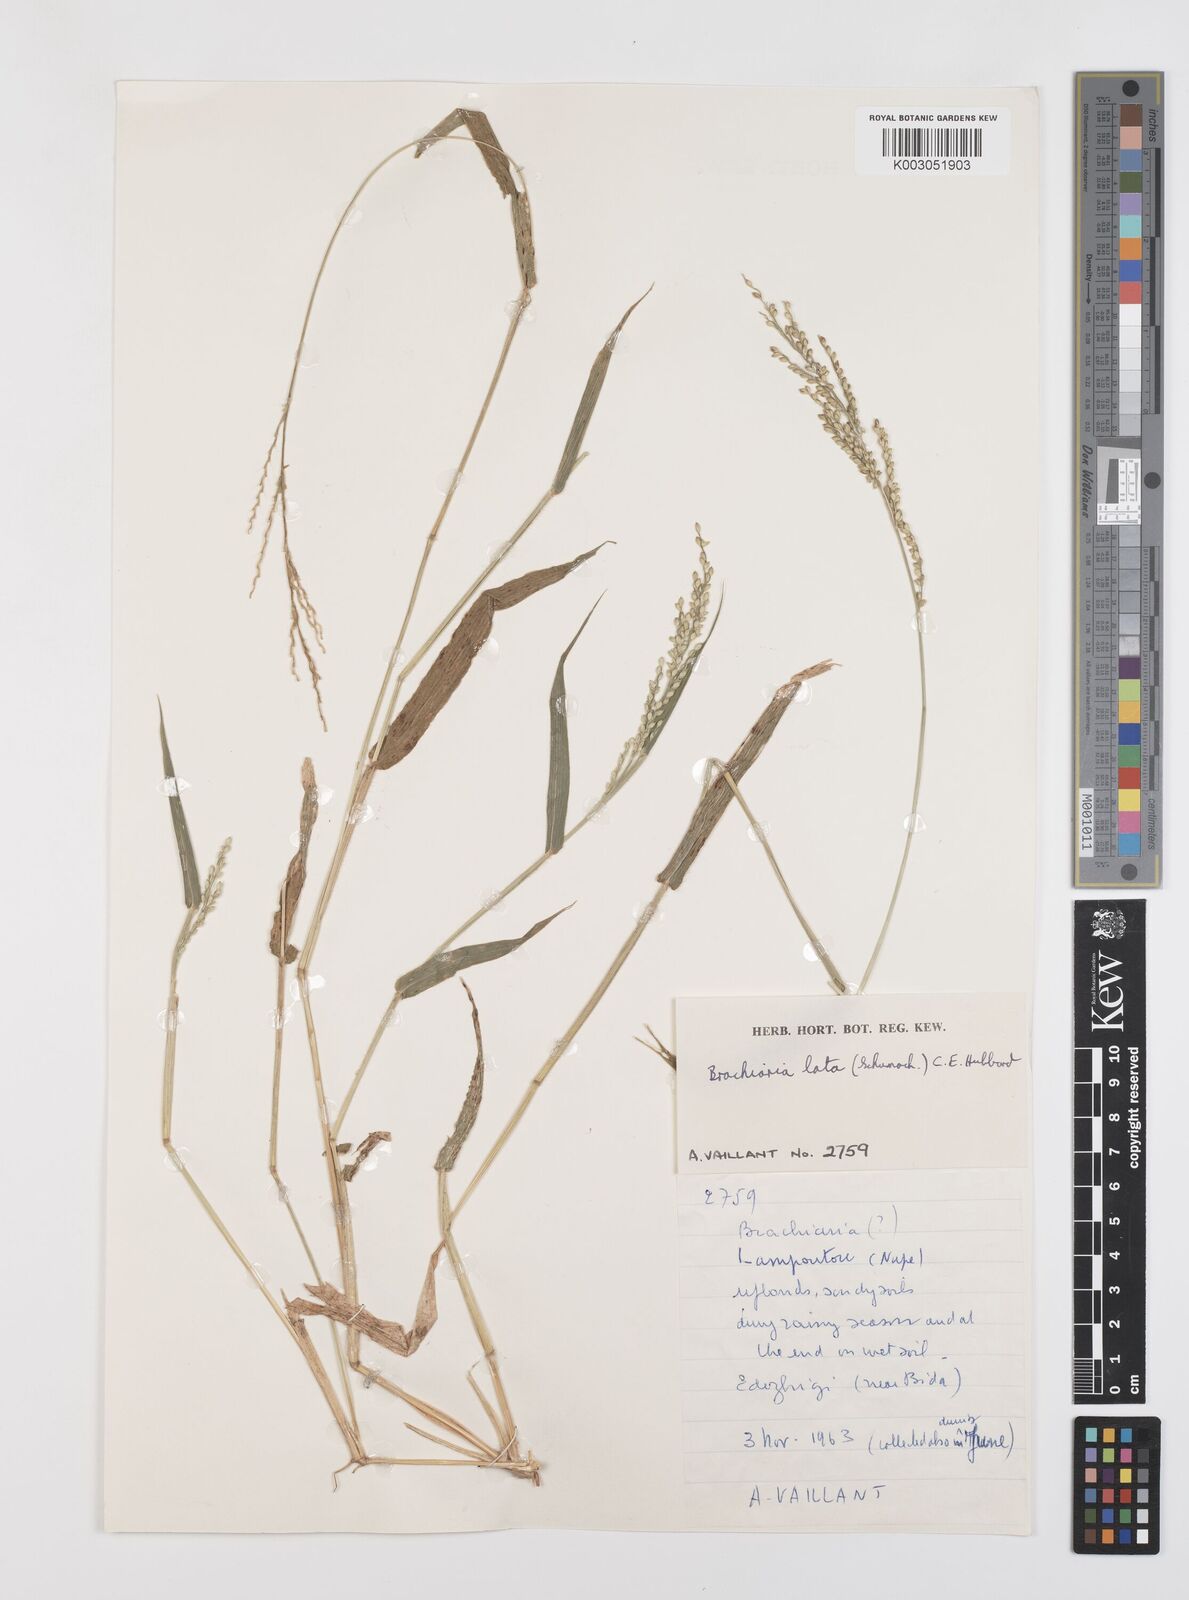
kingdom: Plantae
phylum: Tracheophyta
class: Liliopsida
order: Poales
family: Poaceae
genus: Urochloa
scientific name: Urochloa lata
